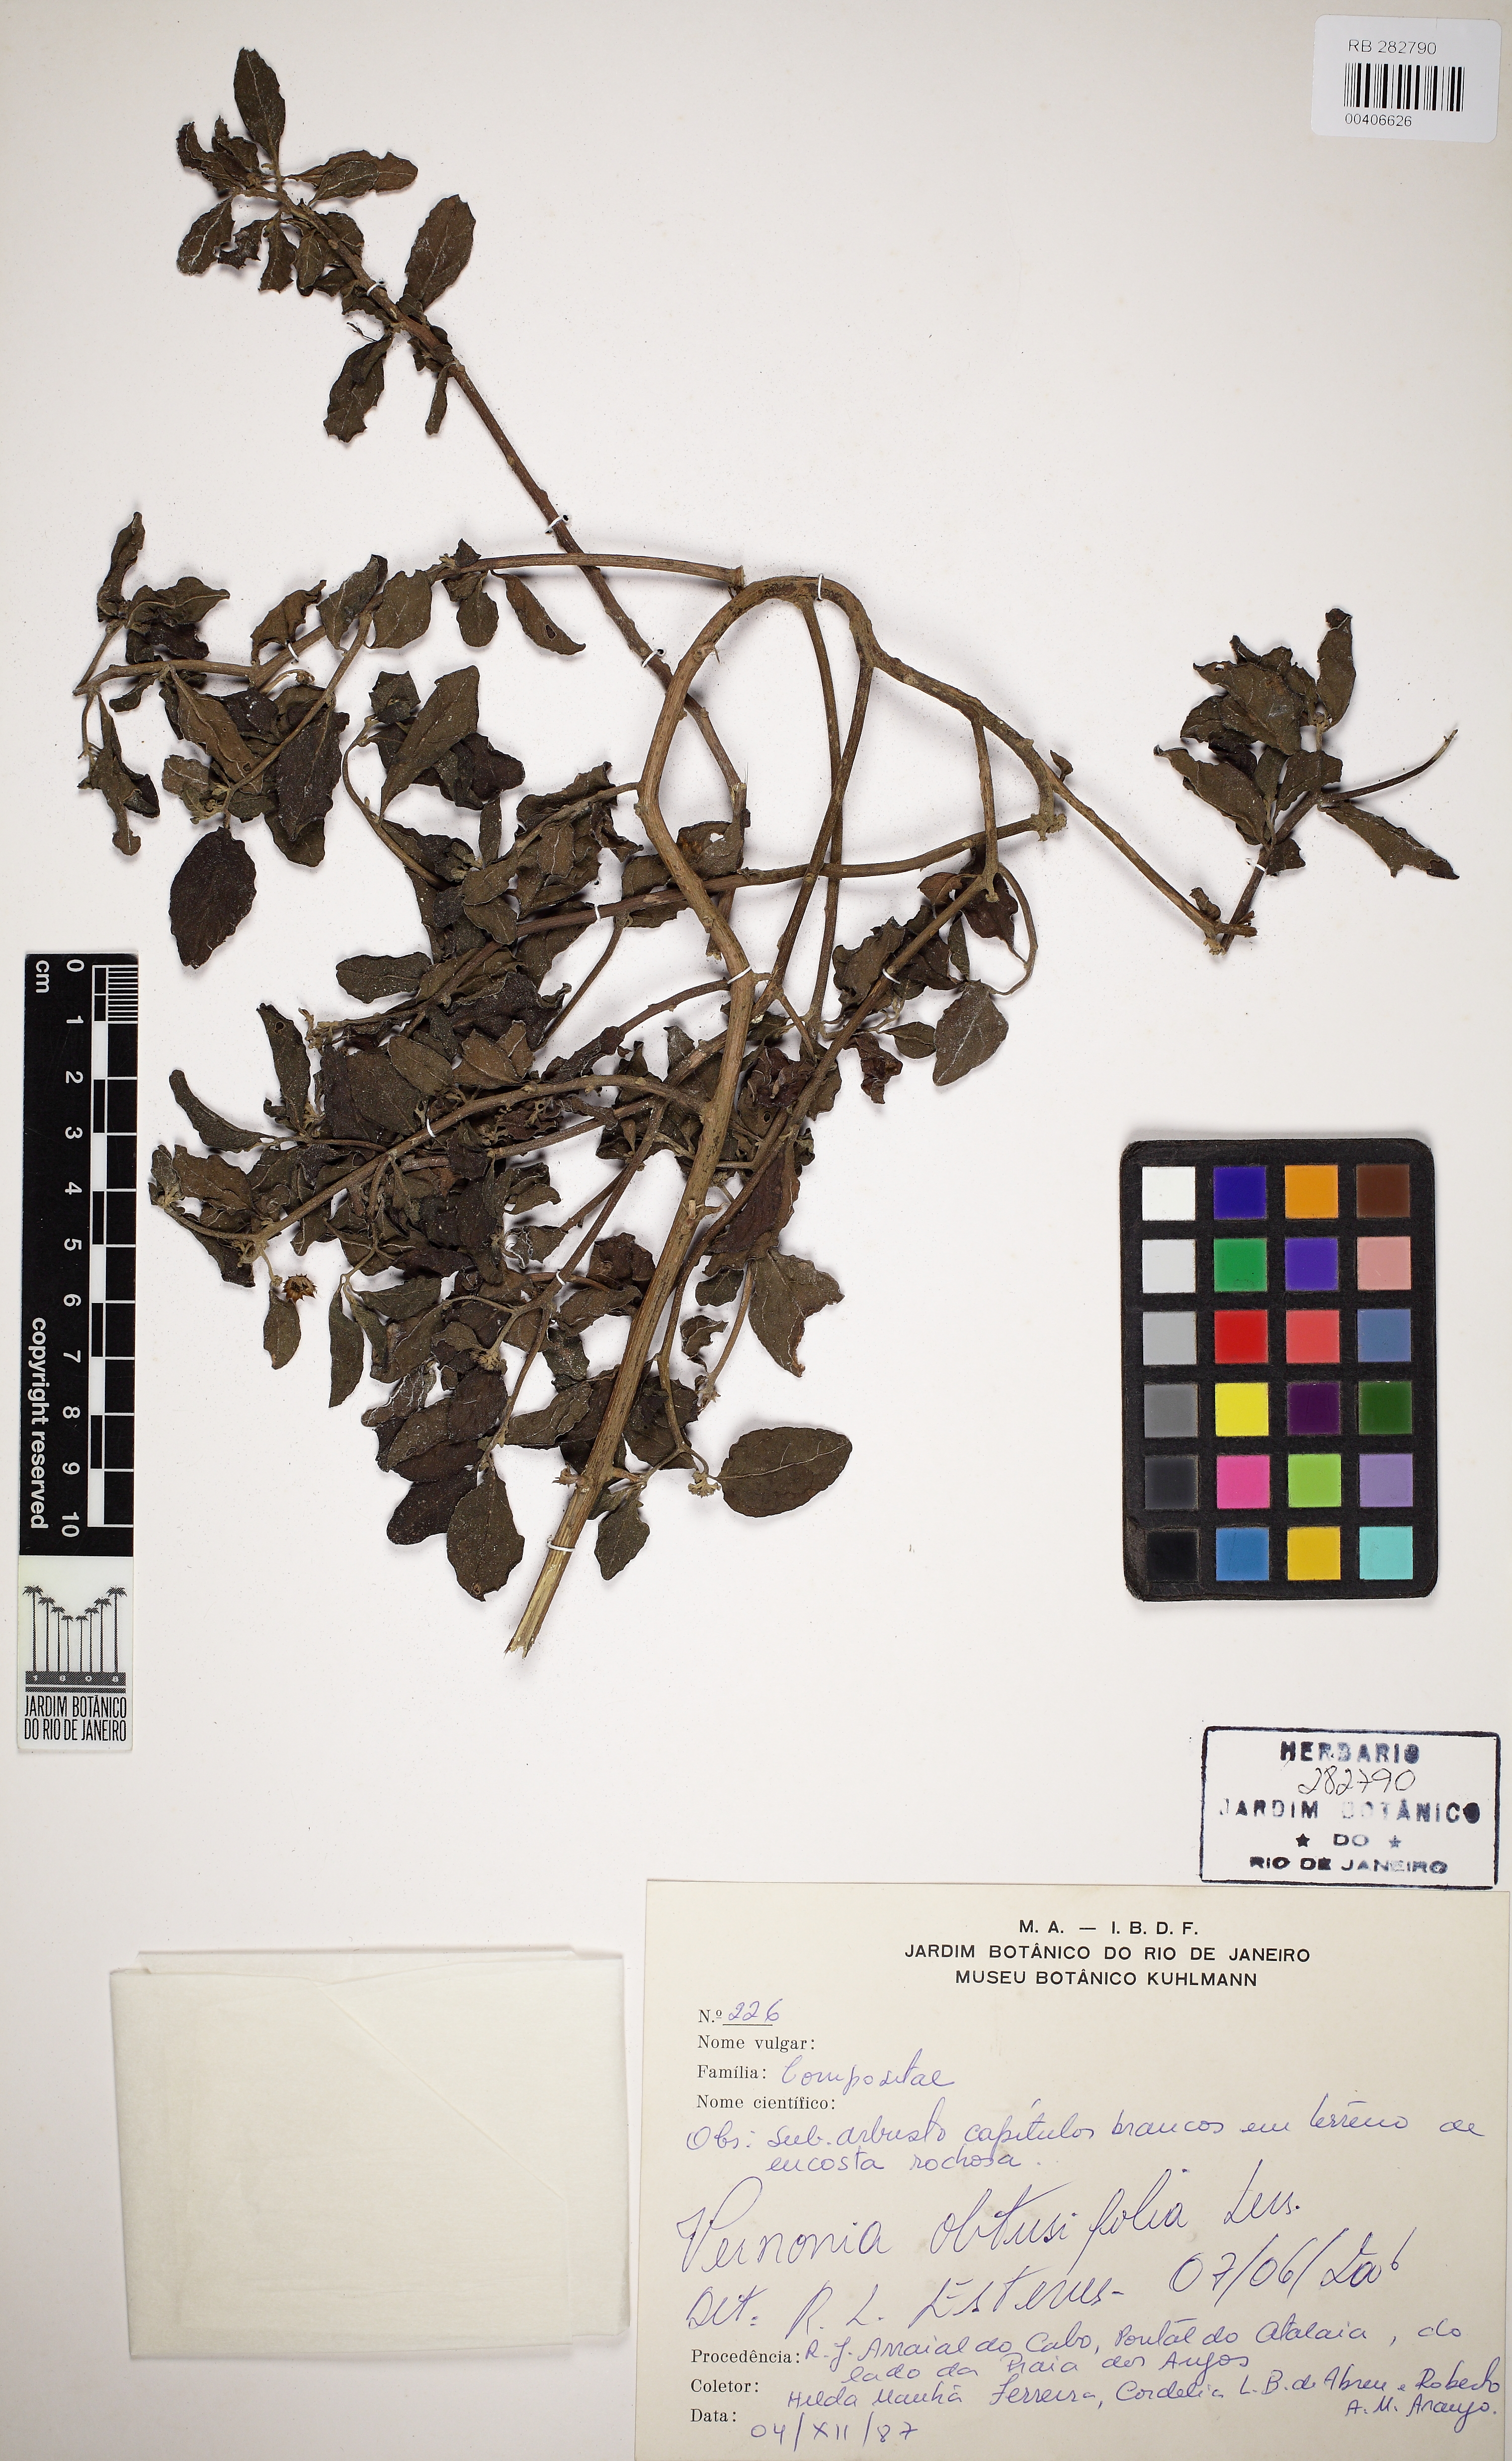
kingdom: Plantae
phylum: Tracheophyta
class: Magnoliopsida
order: Asterales
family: Asteraceae
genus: Lepidaploa
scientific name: Lepidaploa obtusifolia
